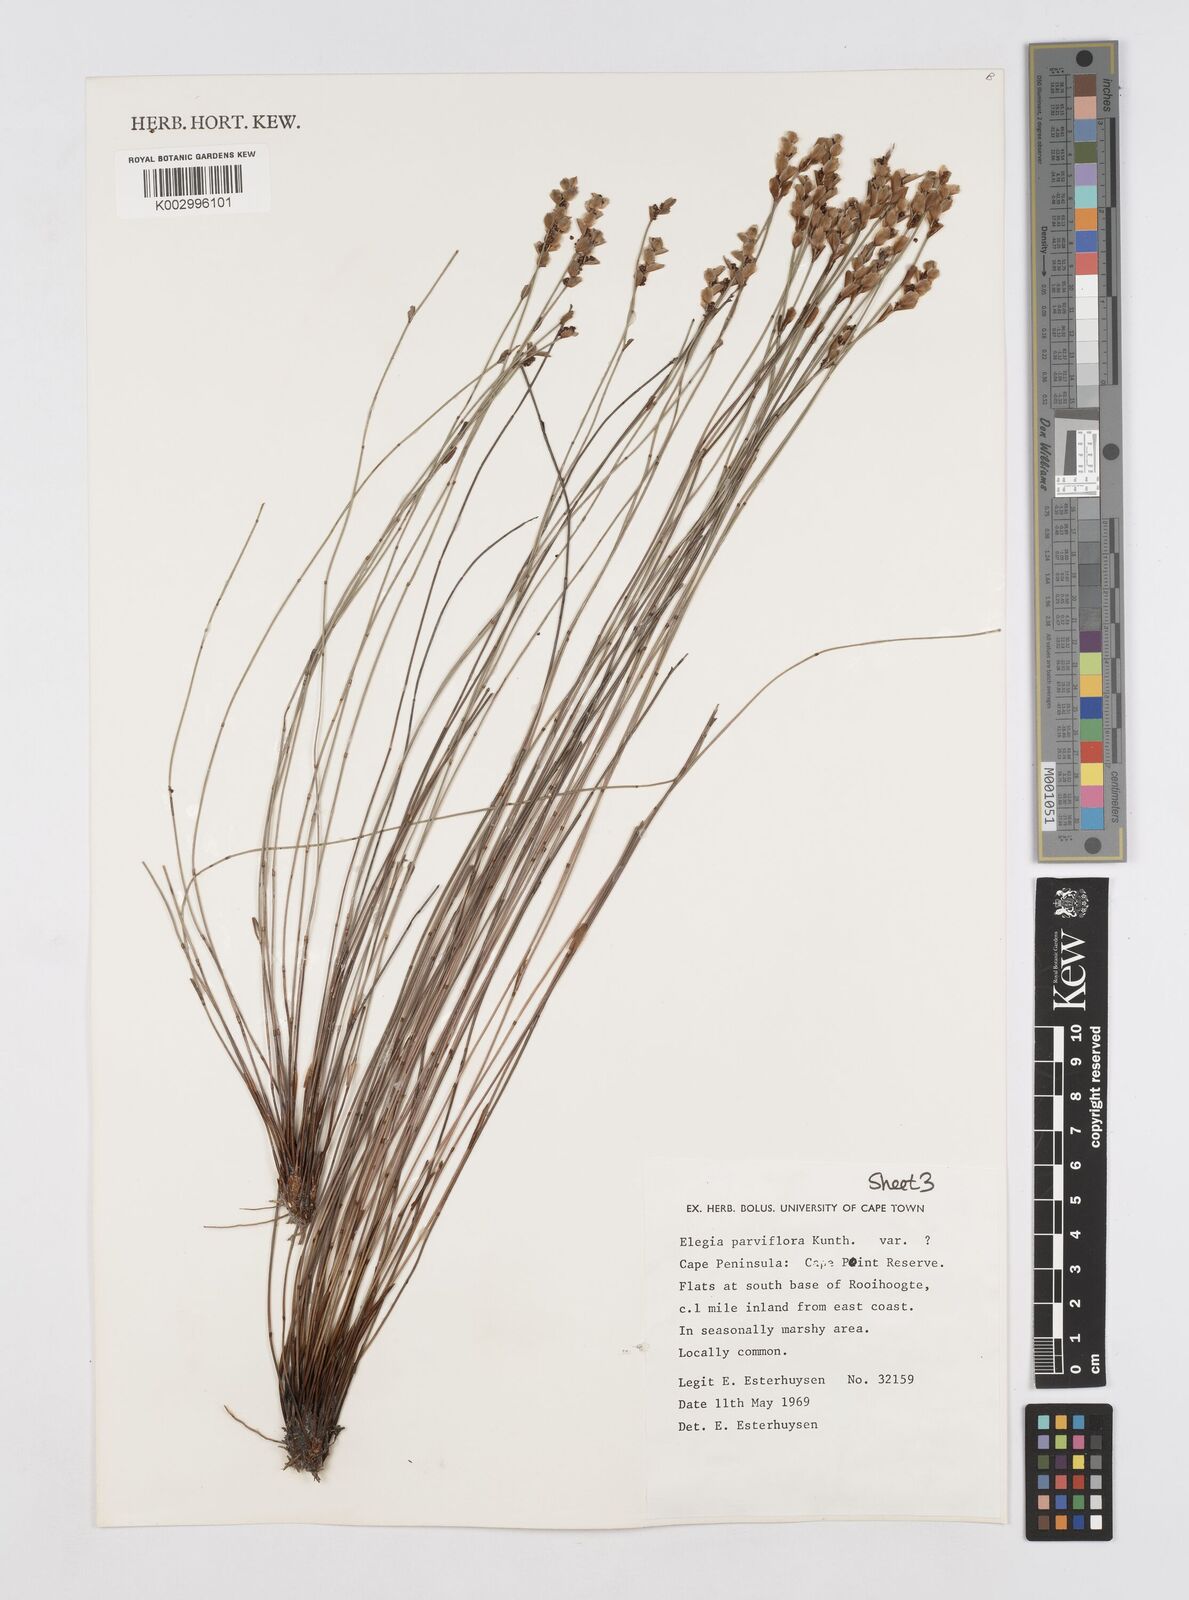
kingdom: Plantae
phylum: Tracheophyta
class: Liliopsida
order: Poales
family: Restionaceae
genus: Cannomois
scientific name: Cannomois parviflora
